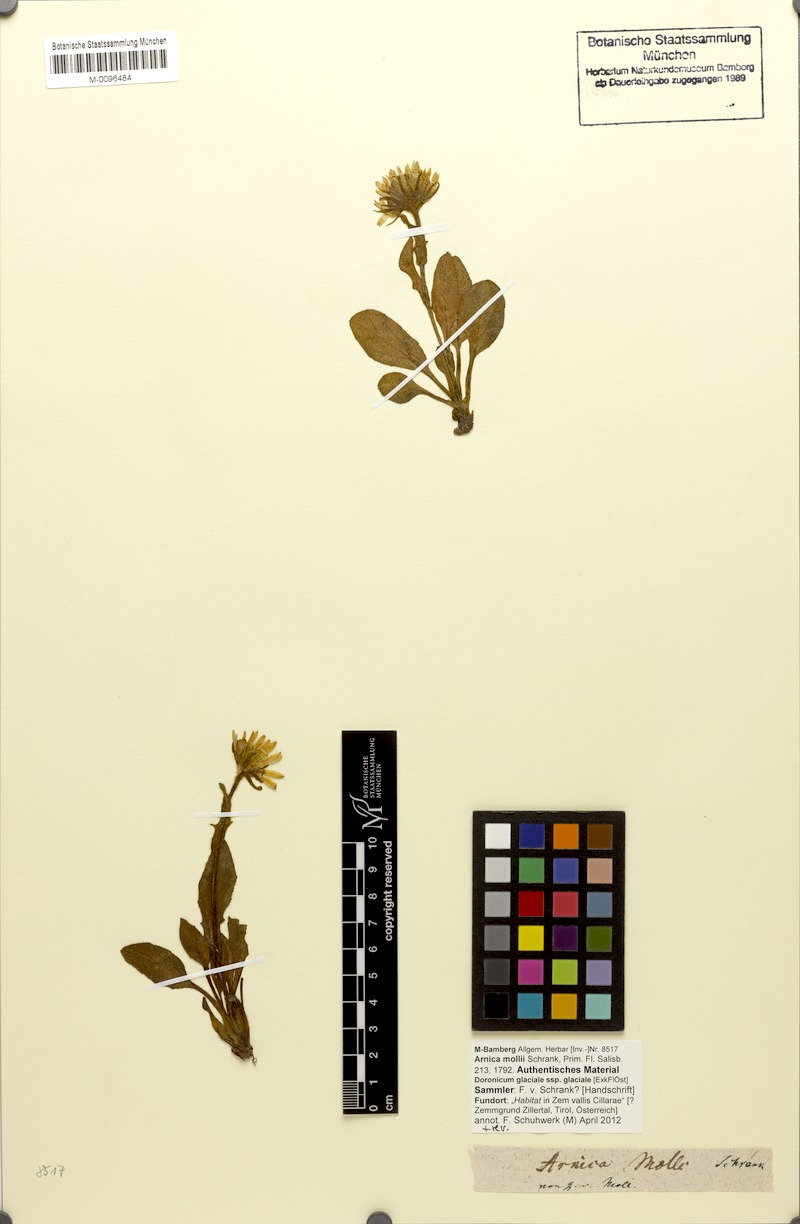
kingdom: Plantae
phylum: Tracheophyta
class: Magnoliopsida
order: Asterales
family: Asteraceae
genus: Doronicum
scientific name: Doronicum glaciale
